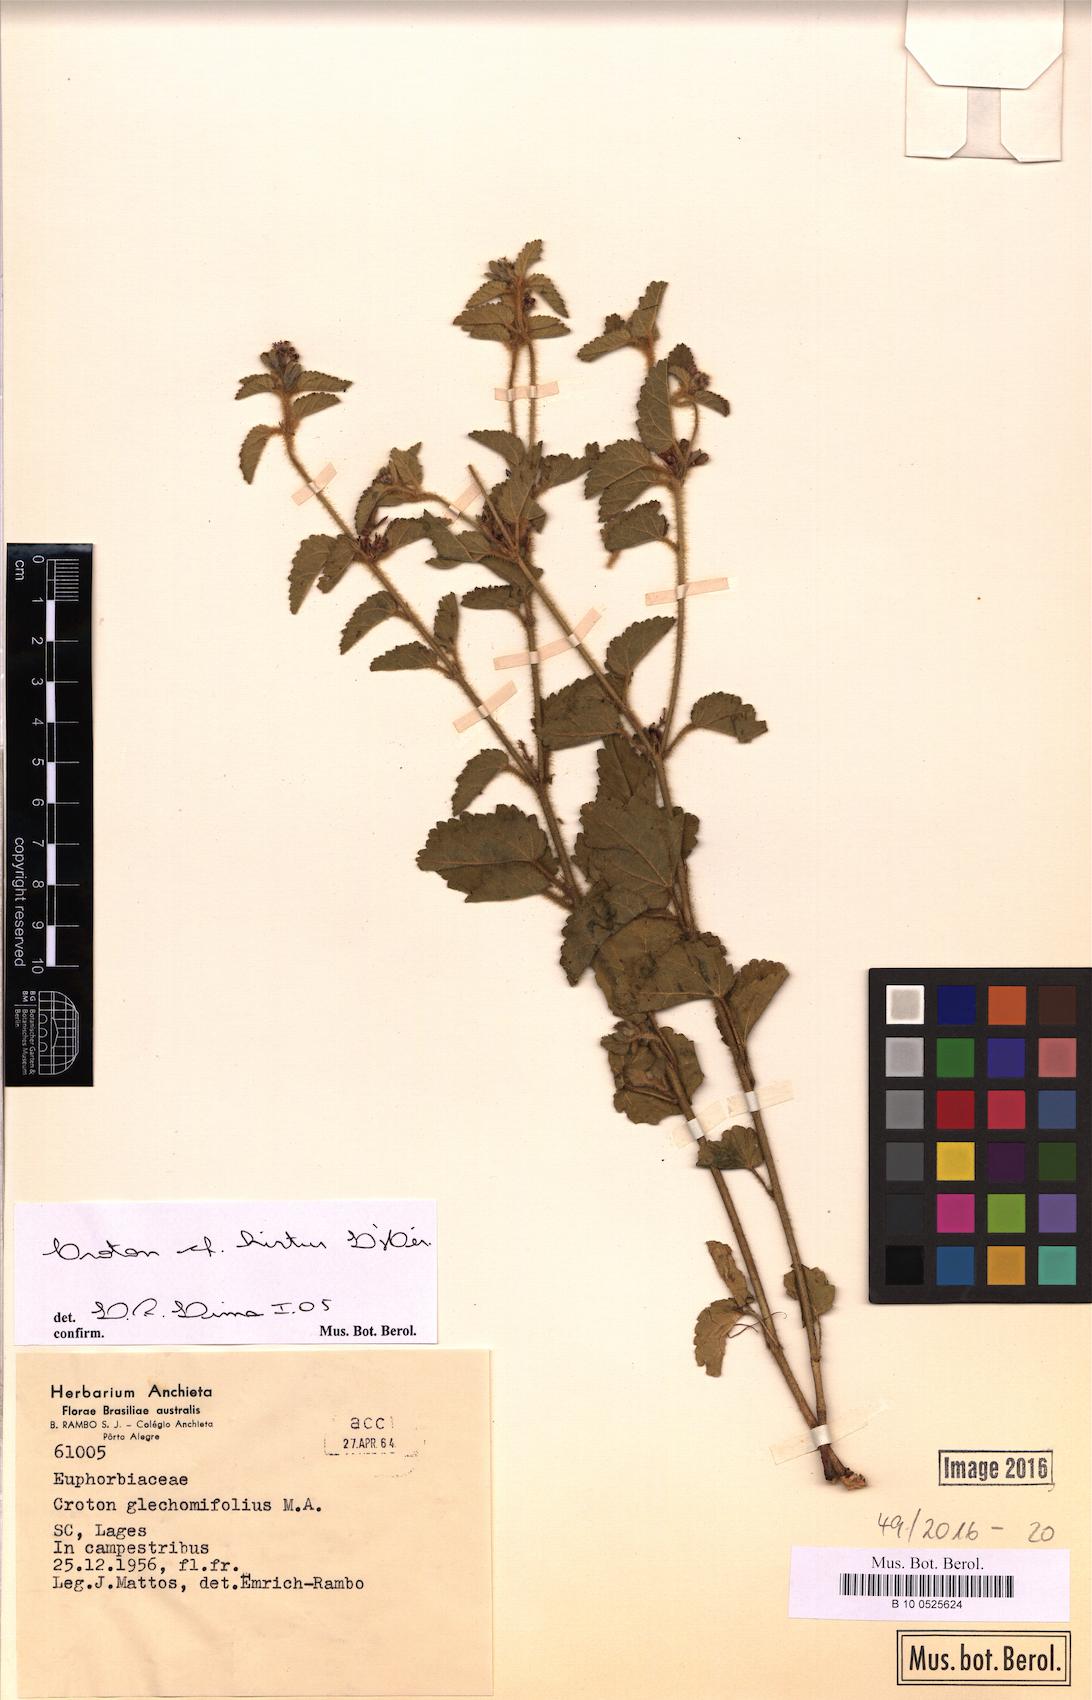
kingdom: Plantae
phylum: Tracheophyta
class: Magnoliopsida
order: Malpighiales
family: Euphorbiaceae
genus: Croton
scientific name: Croton hirtus
